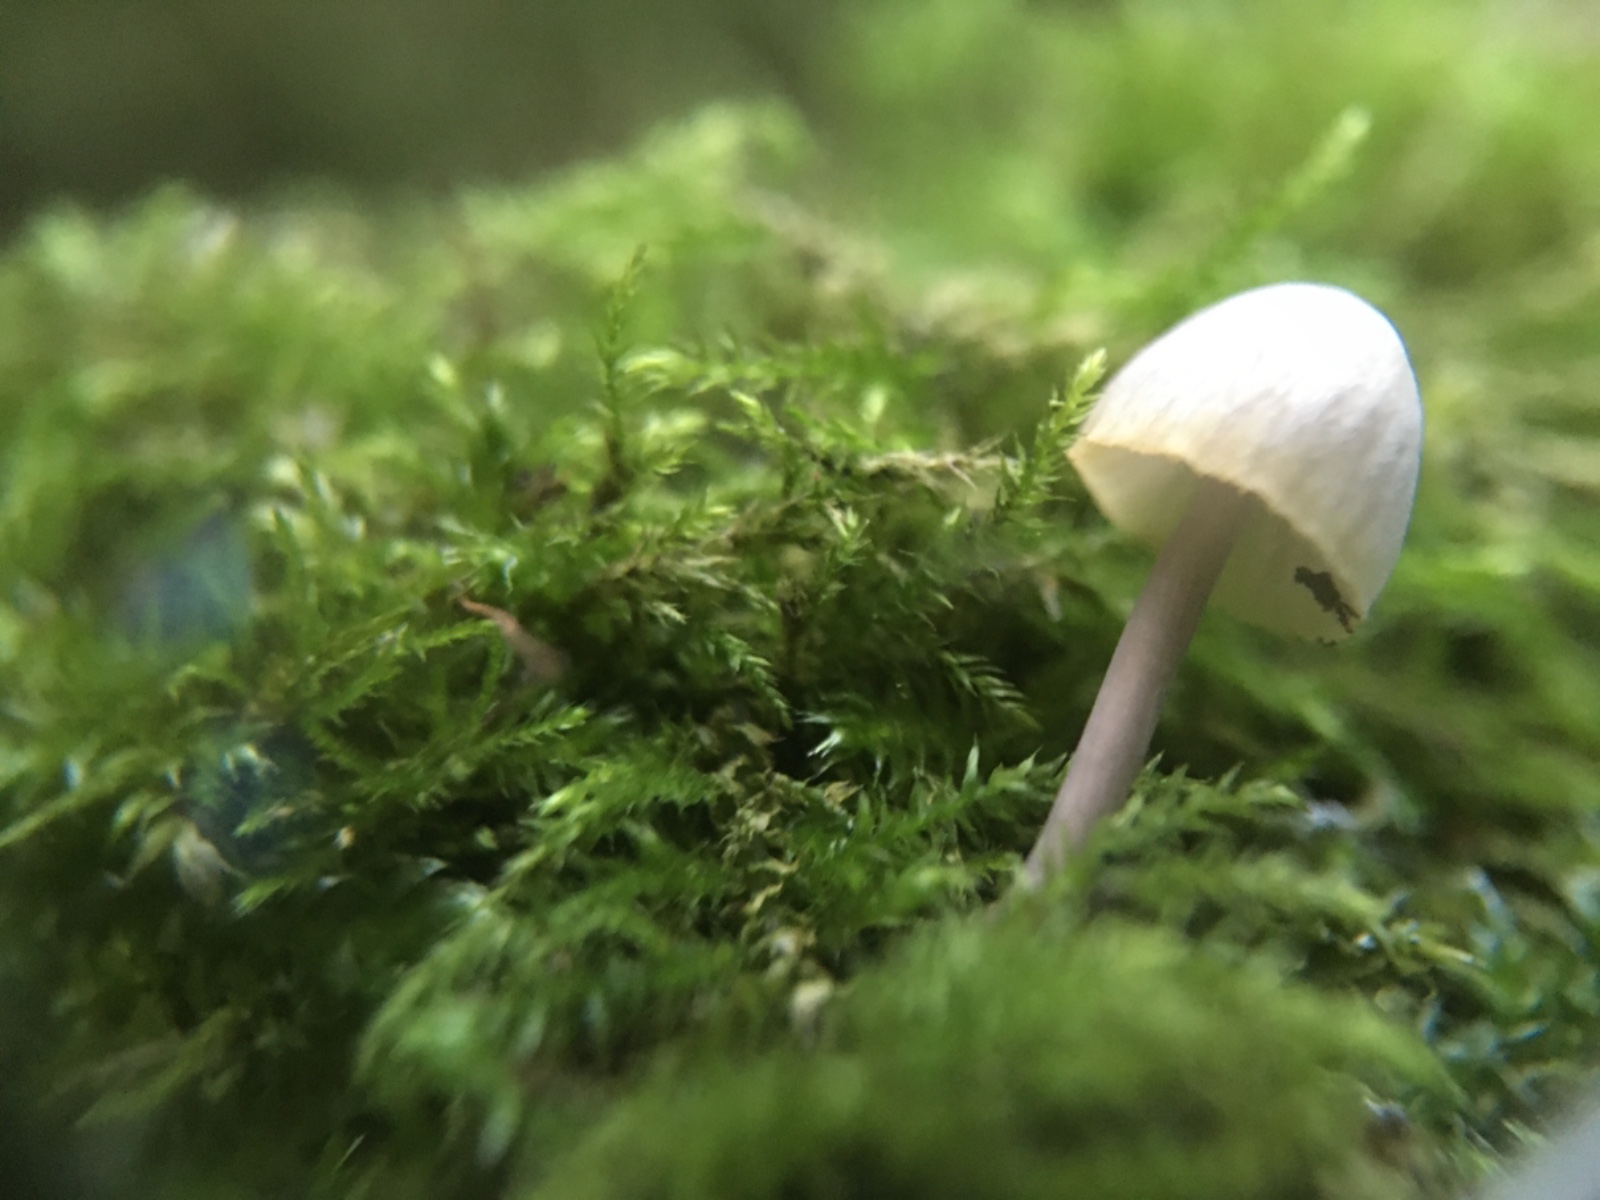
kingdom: Fungi
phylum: Basidiomycota
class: Agaricomycetes
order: Agaricales
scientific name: Agaricales
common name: champignonordenen
